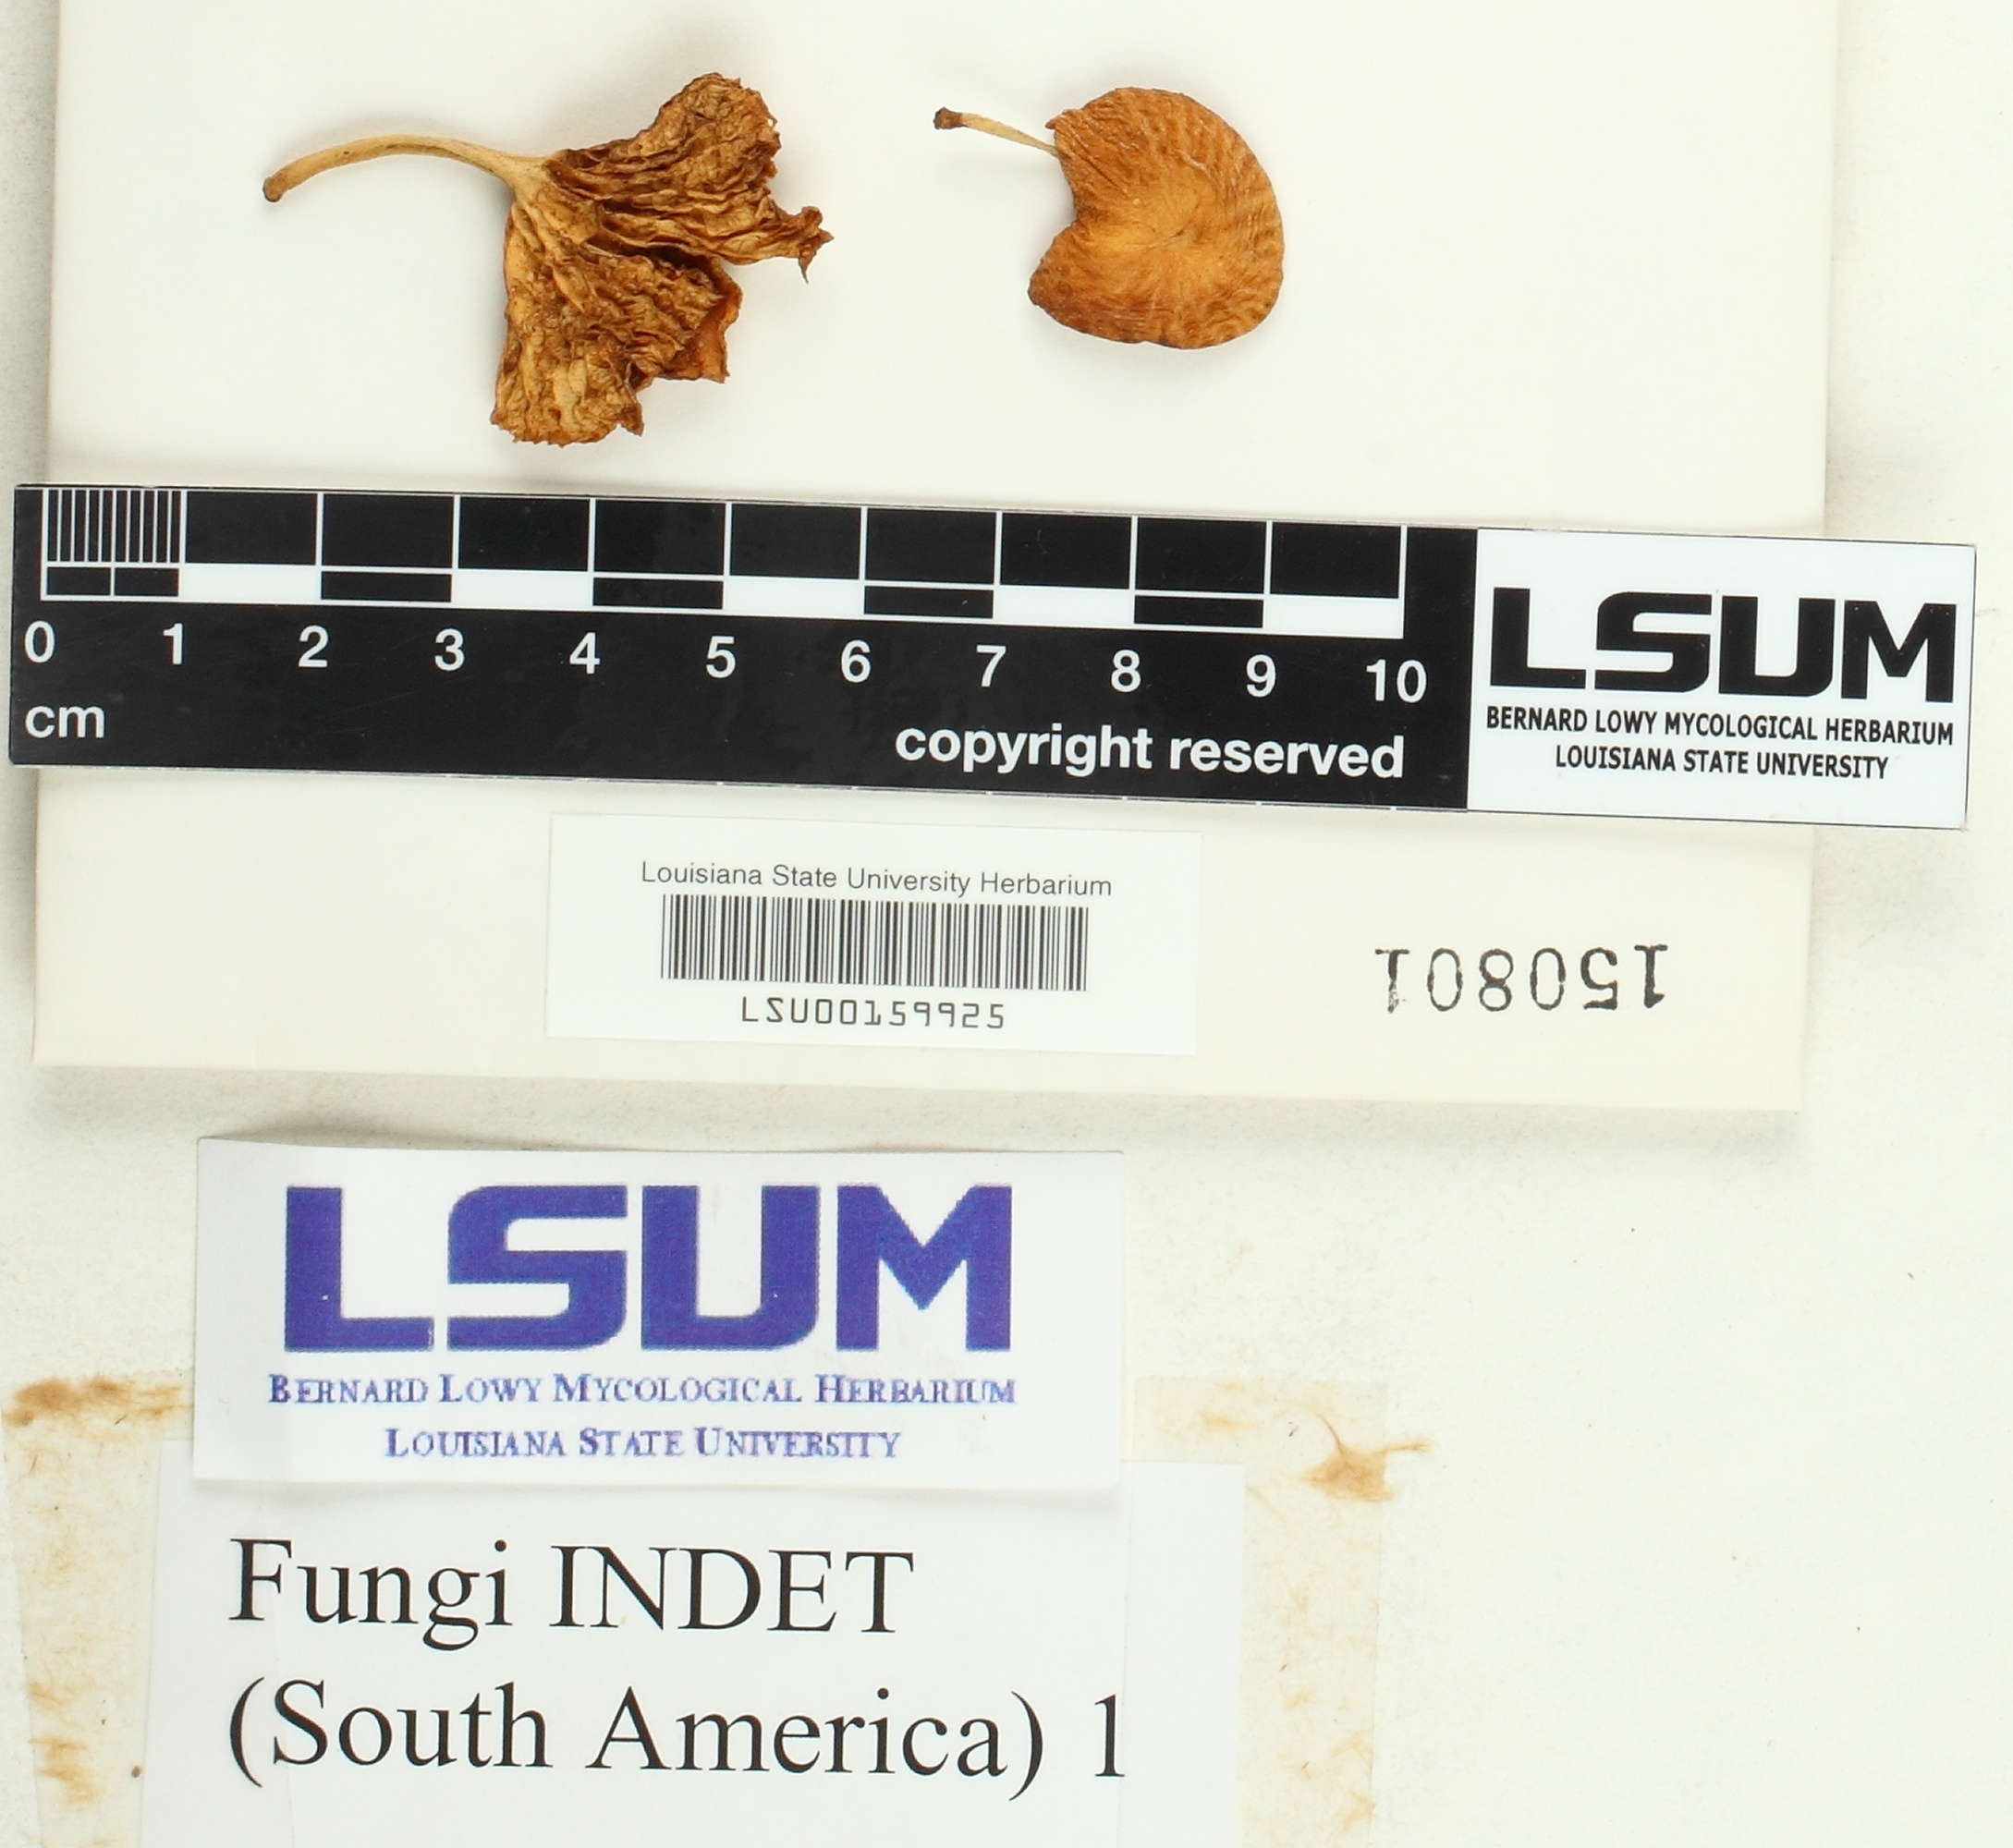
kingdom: Fungi
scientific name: Fungi
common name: Fungi
